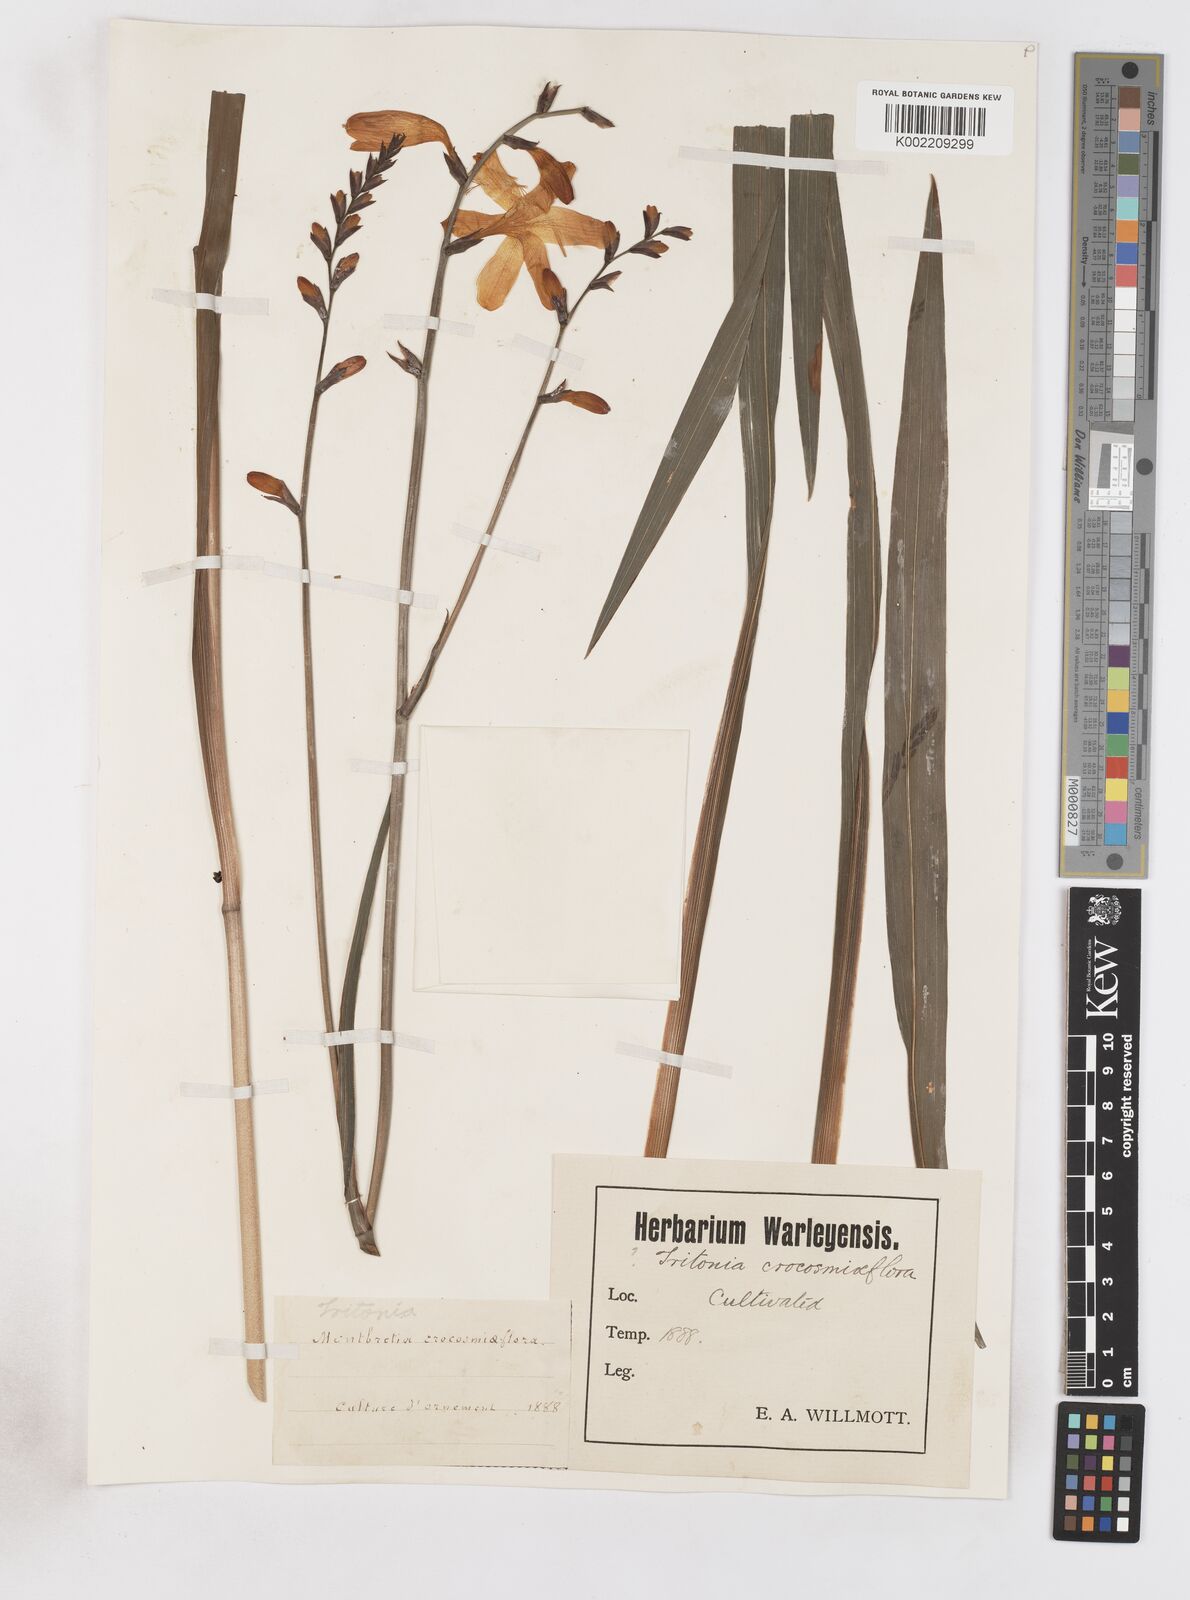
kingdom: Plantae
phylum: Tracheophyta
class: Liliopsida
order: Asparagales
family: Iridaceae
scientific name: Iridaceae
